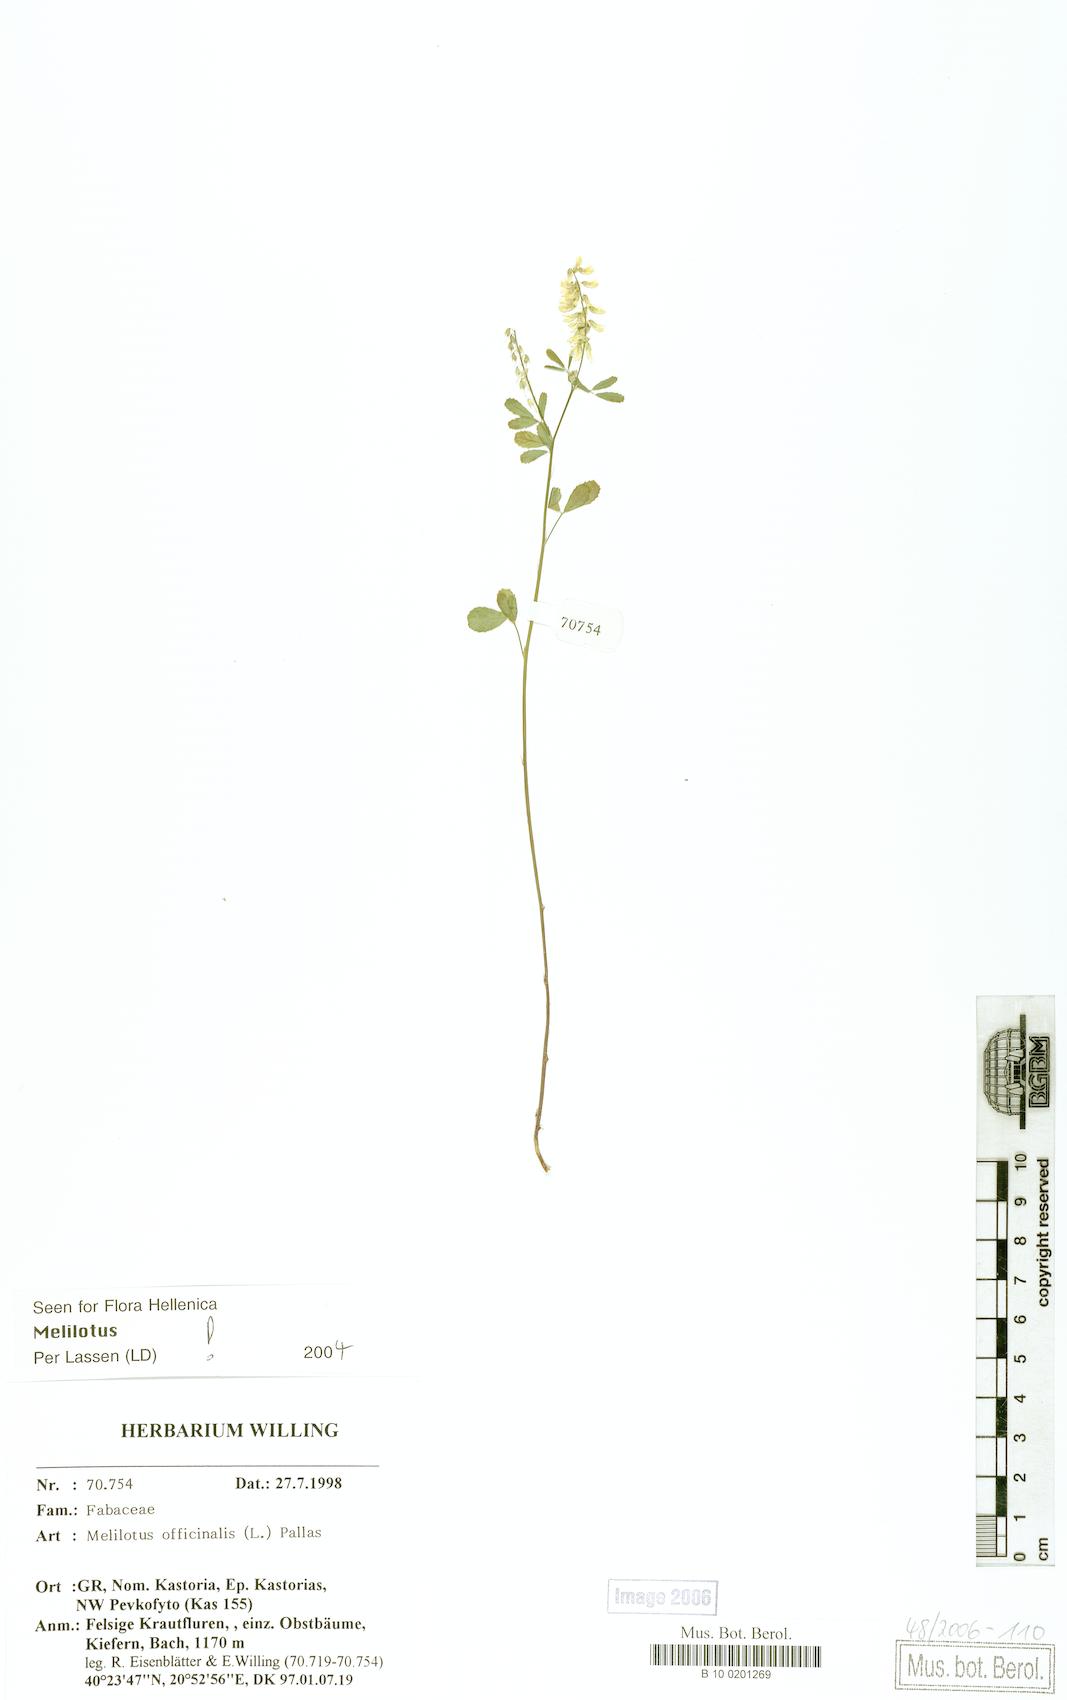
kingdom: Plantae
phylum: Tracheophyta
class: Magnoliopsida
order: Fabales
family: Fabaceae
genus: Melilotus
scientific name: Melilotus officinalis
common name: Sweetclover
